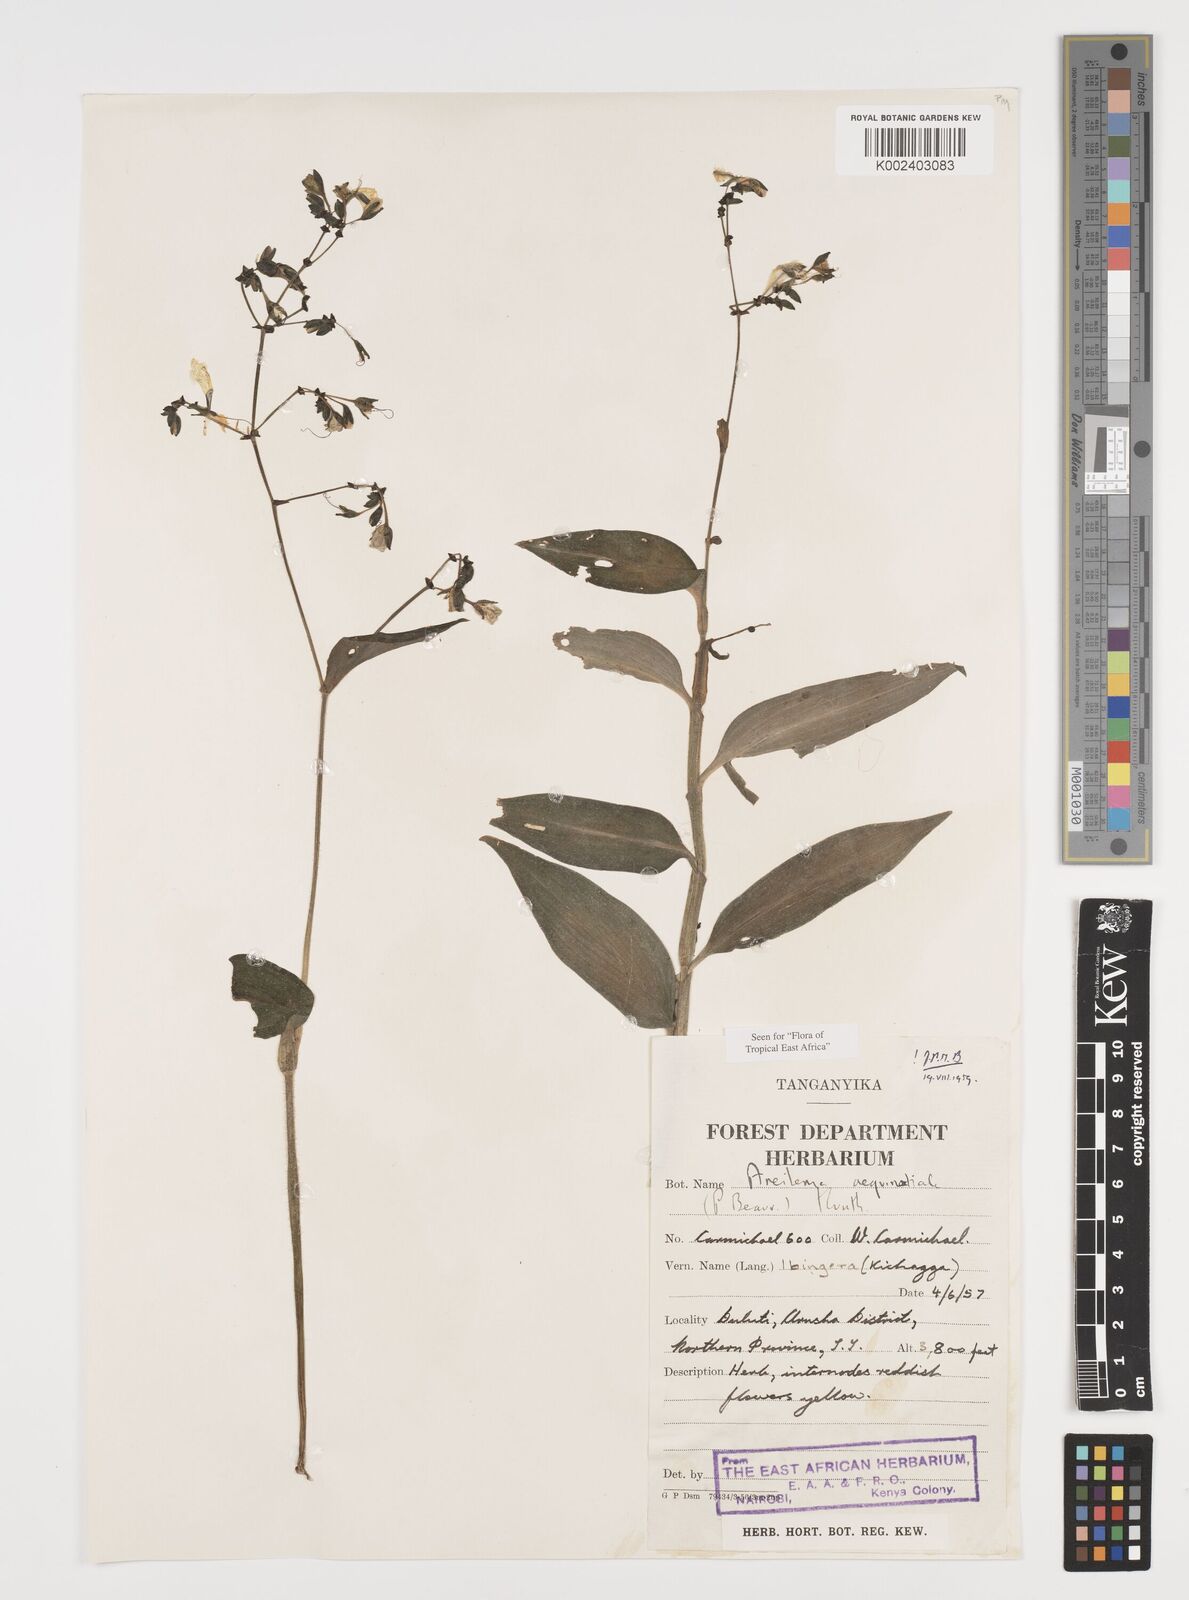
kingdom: Plantae
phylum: Tracheophyta
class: Liliopsida
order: Commelinales
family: Commelinaceae
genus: Aneilema
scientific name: Aneilema aequinoctiale
